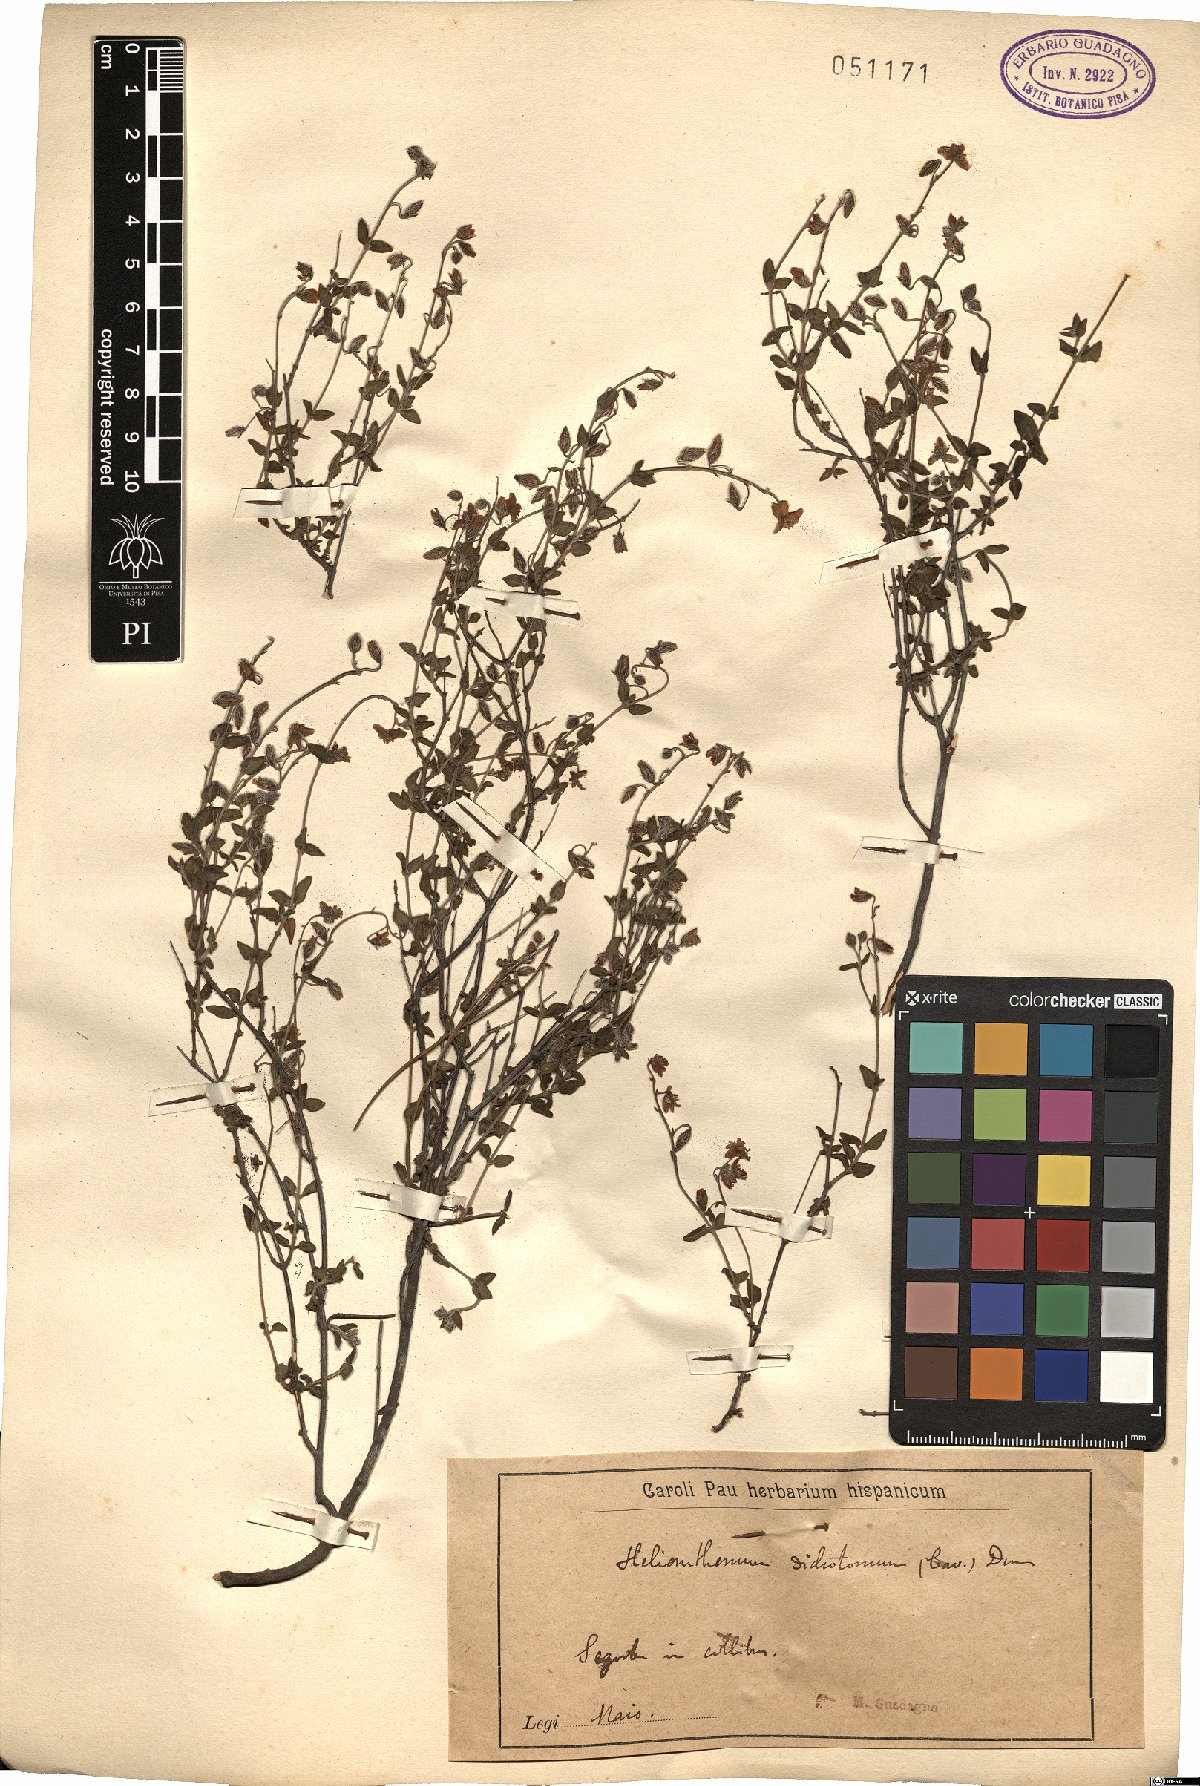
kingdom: Plantae
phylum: Tracheophyta
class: Magnoliopsida
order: Malvales
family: Cistaceae
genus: Helianthemum
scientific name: Helianthemum origanifolium
